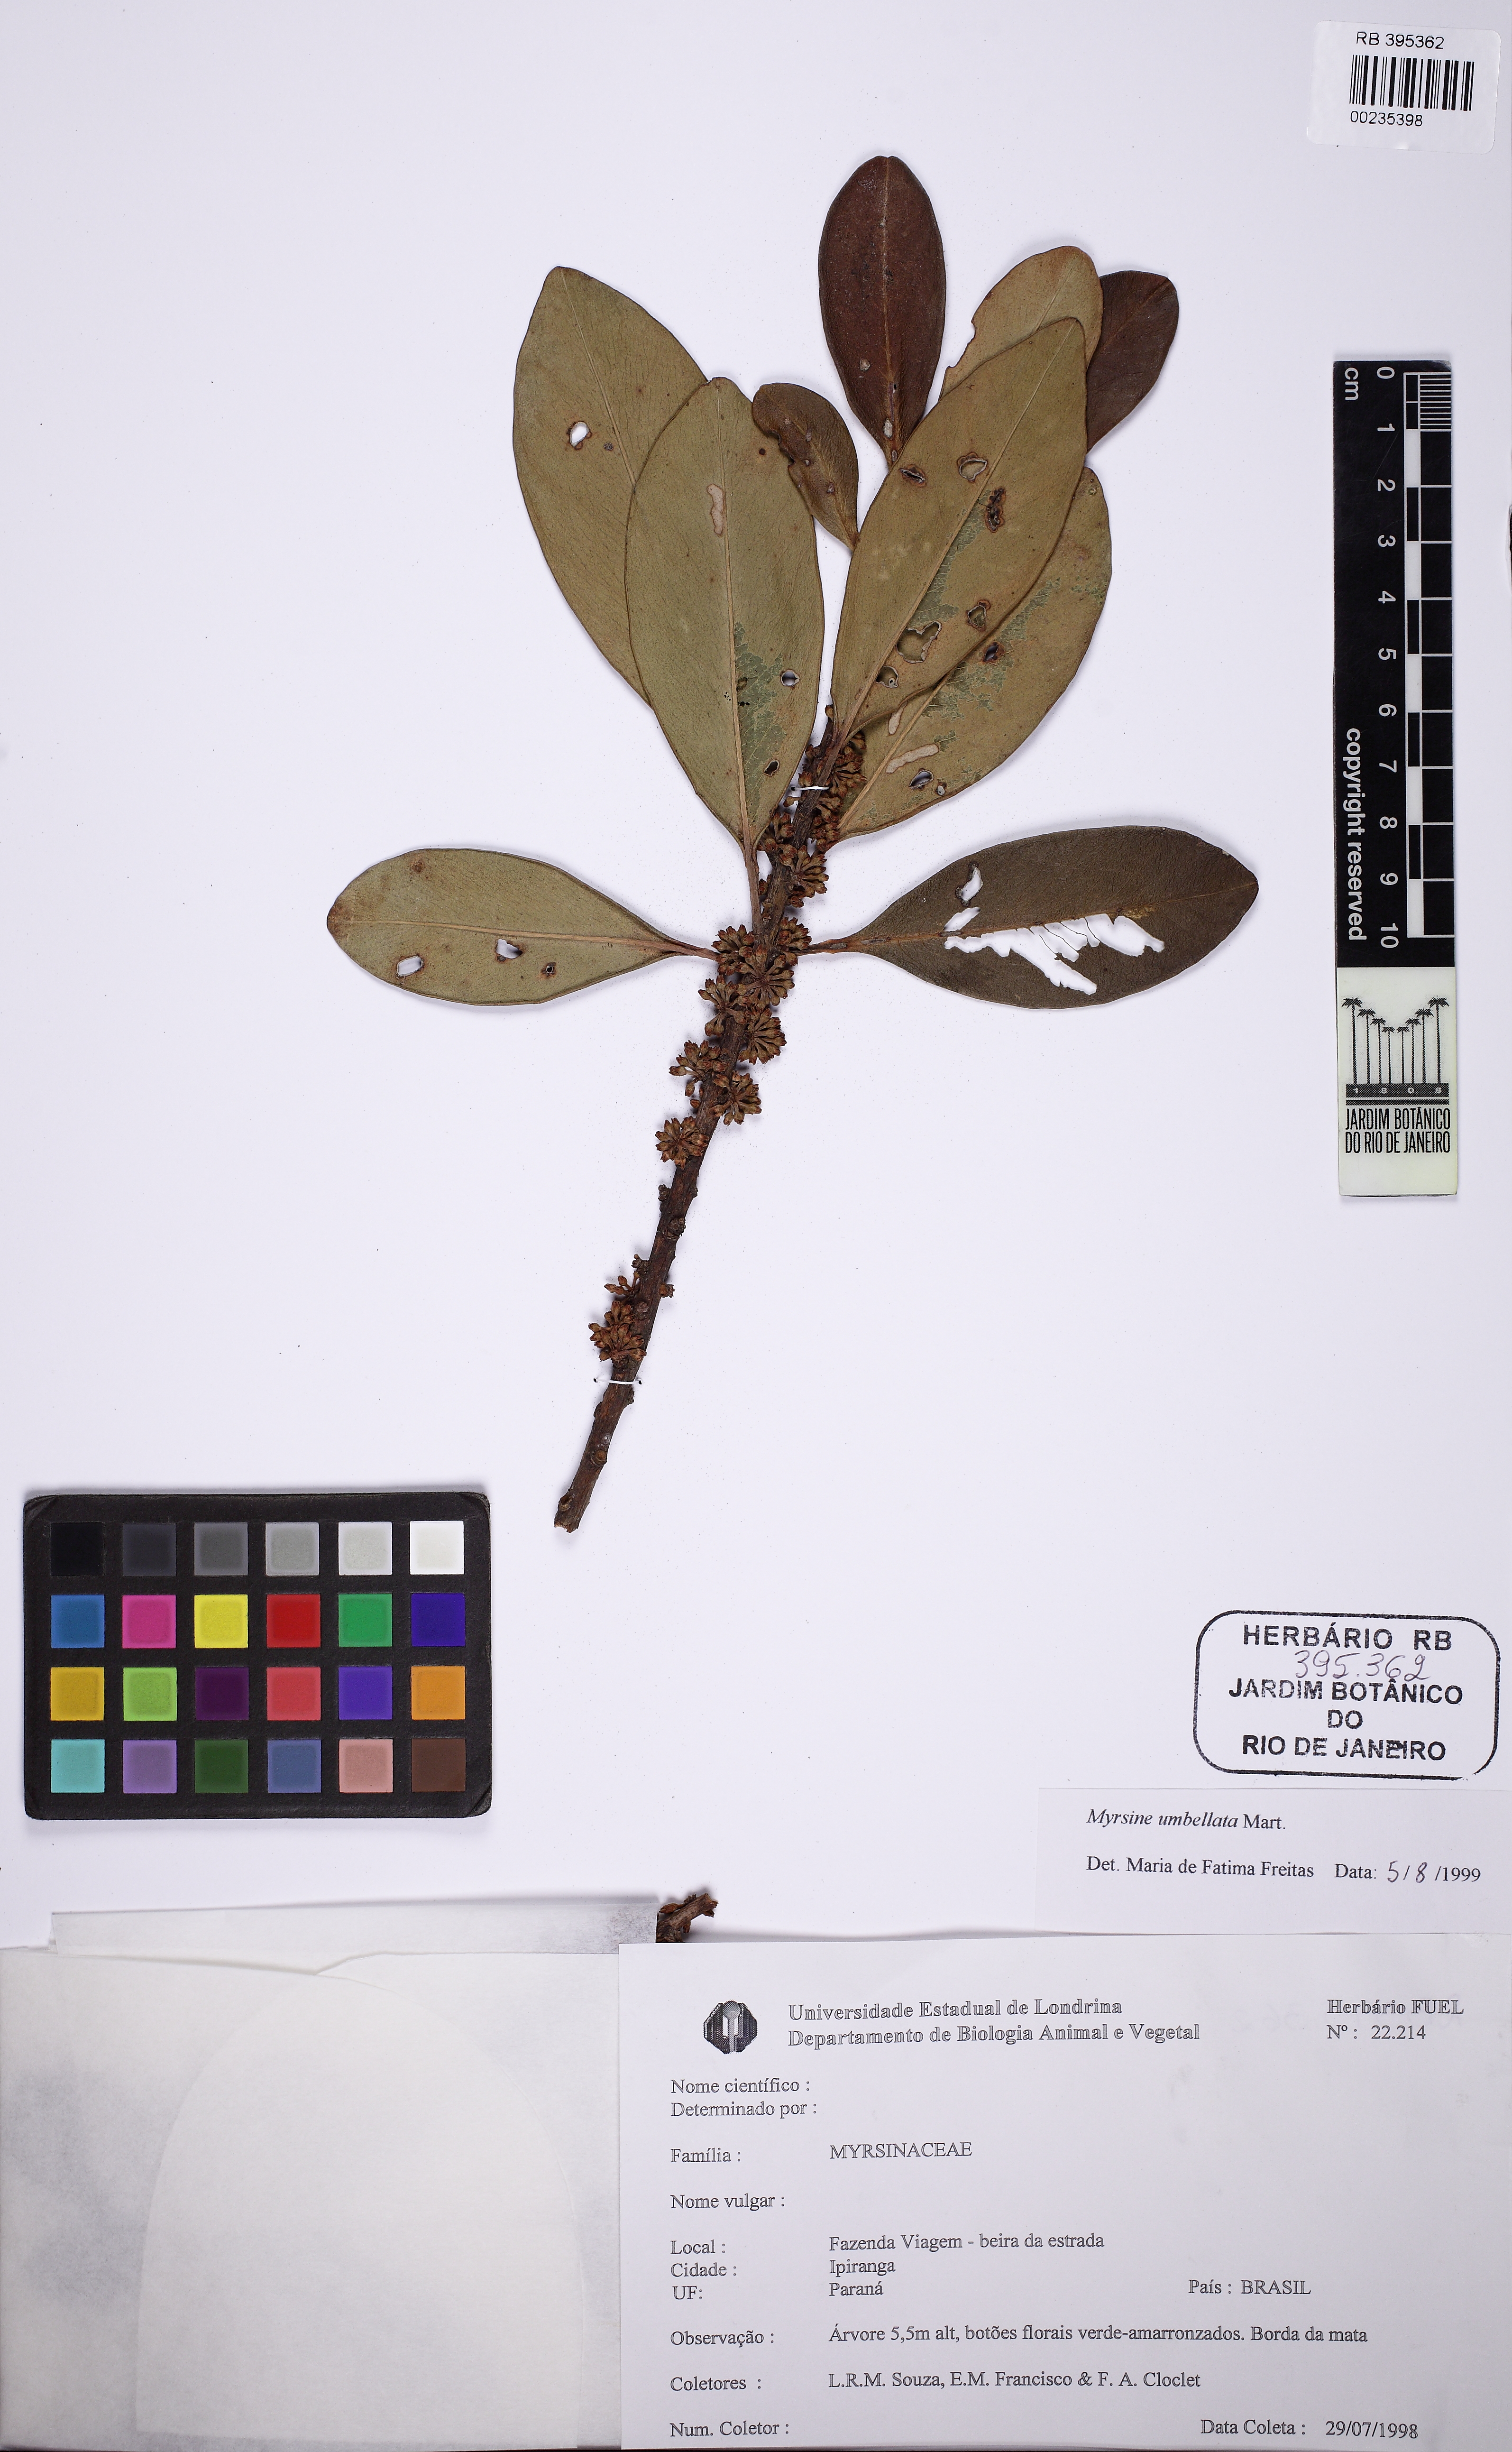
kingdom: Plantae
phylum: Tracheophyta
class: Magnoliopsida
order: Ericales
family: Primulaceae
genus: Myrsine
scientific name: Myrsine umbellata
